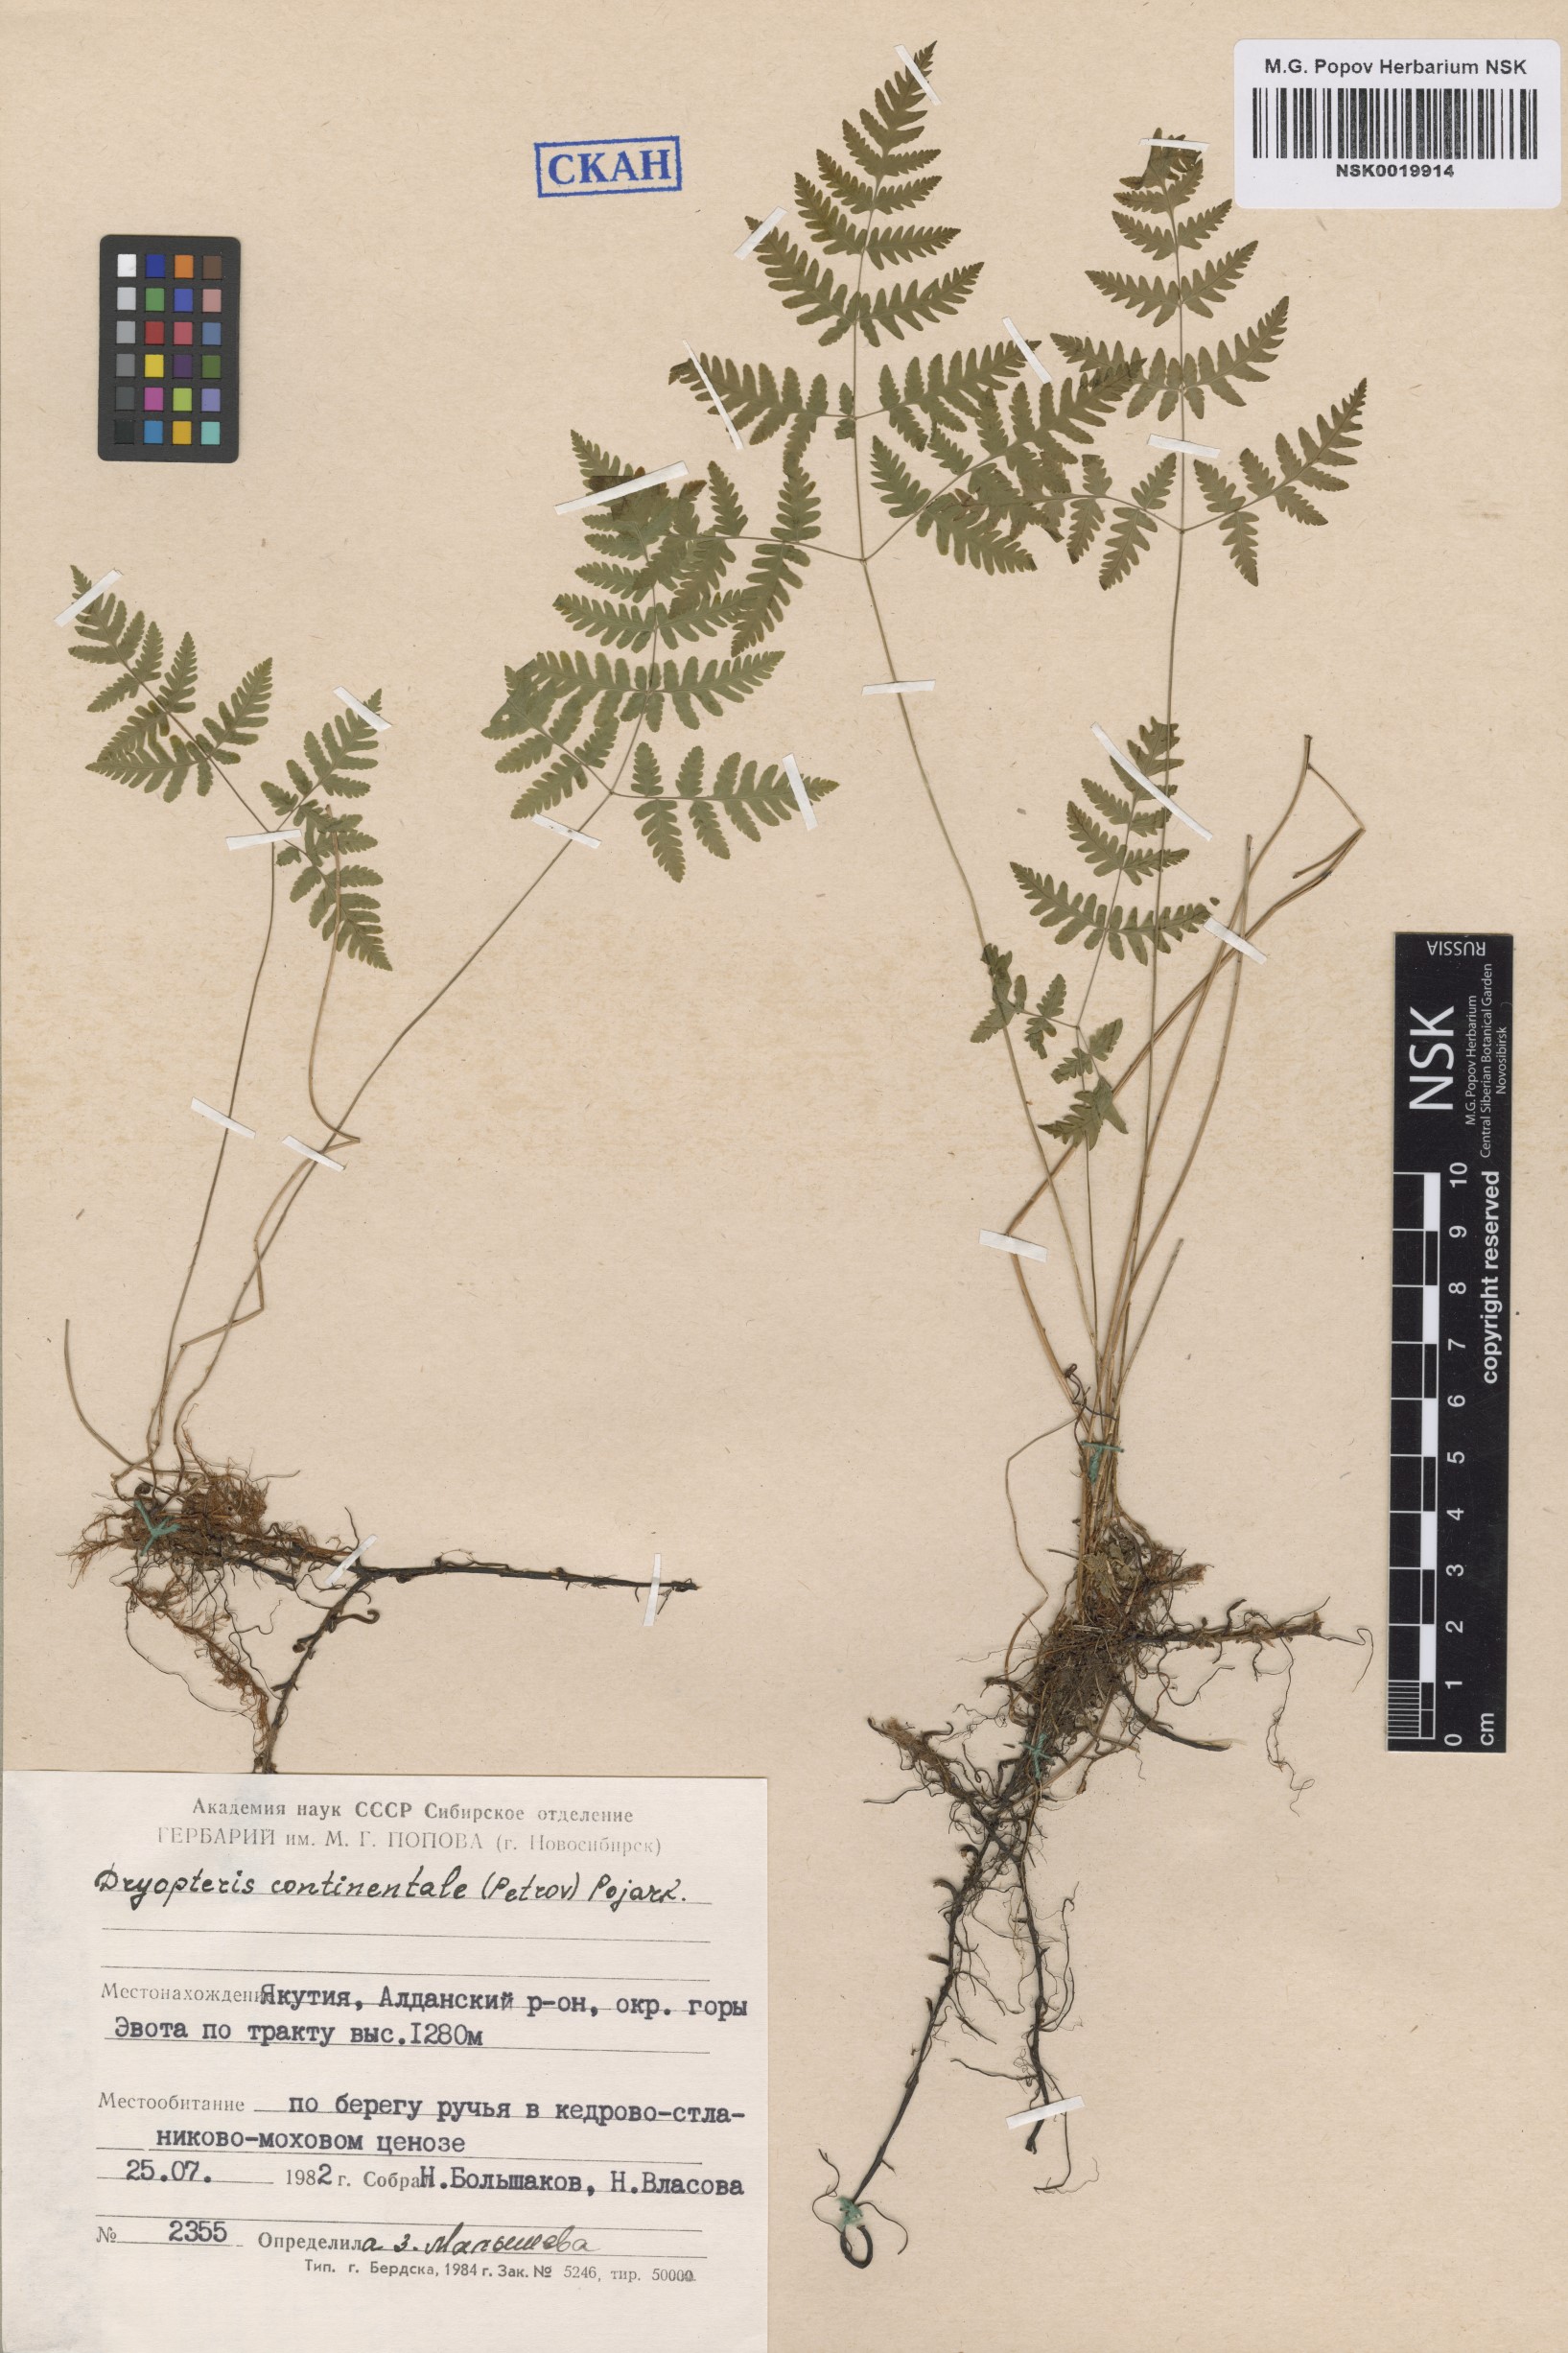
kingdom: Plantae
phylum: Tracheophyta
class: Polypodiopsida
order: Polypodiales
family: Cystopteridaceae
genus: Gymnocarpium
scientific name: Gymnocarpium continentale
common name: Asian oak fern
